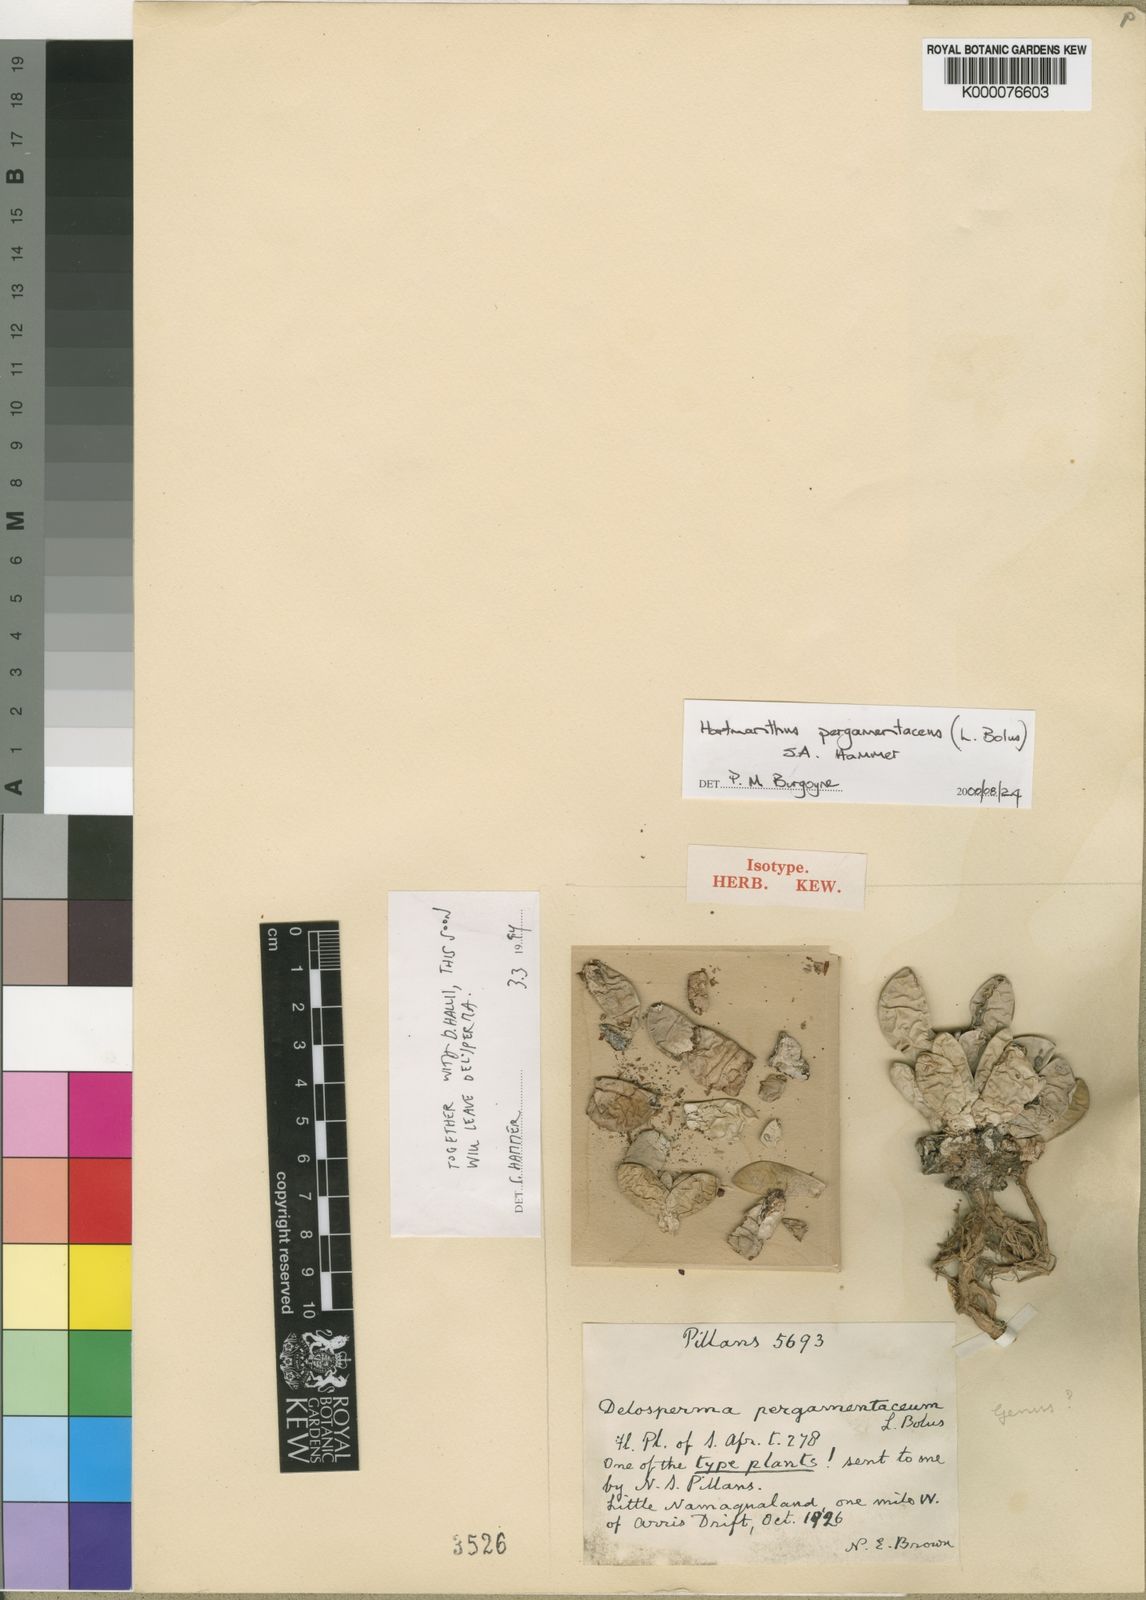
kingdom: Plantae
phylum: Tracheophyta
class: Magnoliopsida
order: Caryophyllales
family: Aizoaceae
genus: Hartmanthus
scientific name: Hartmanthus pergamentaceus
